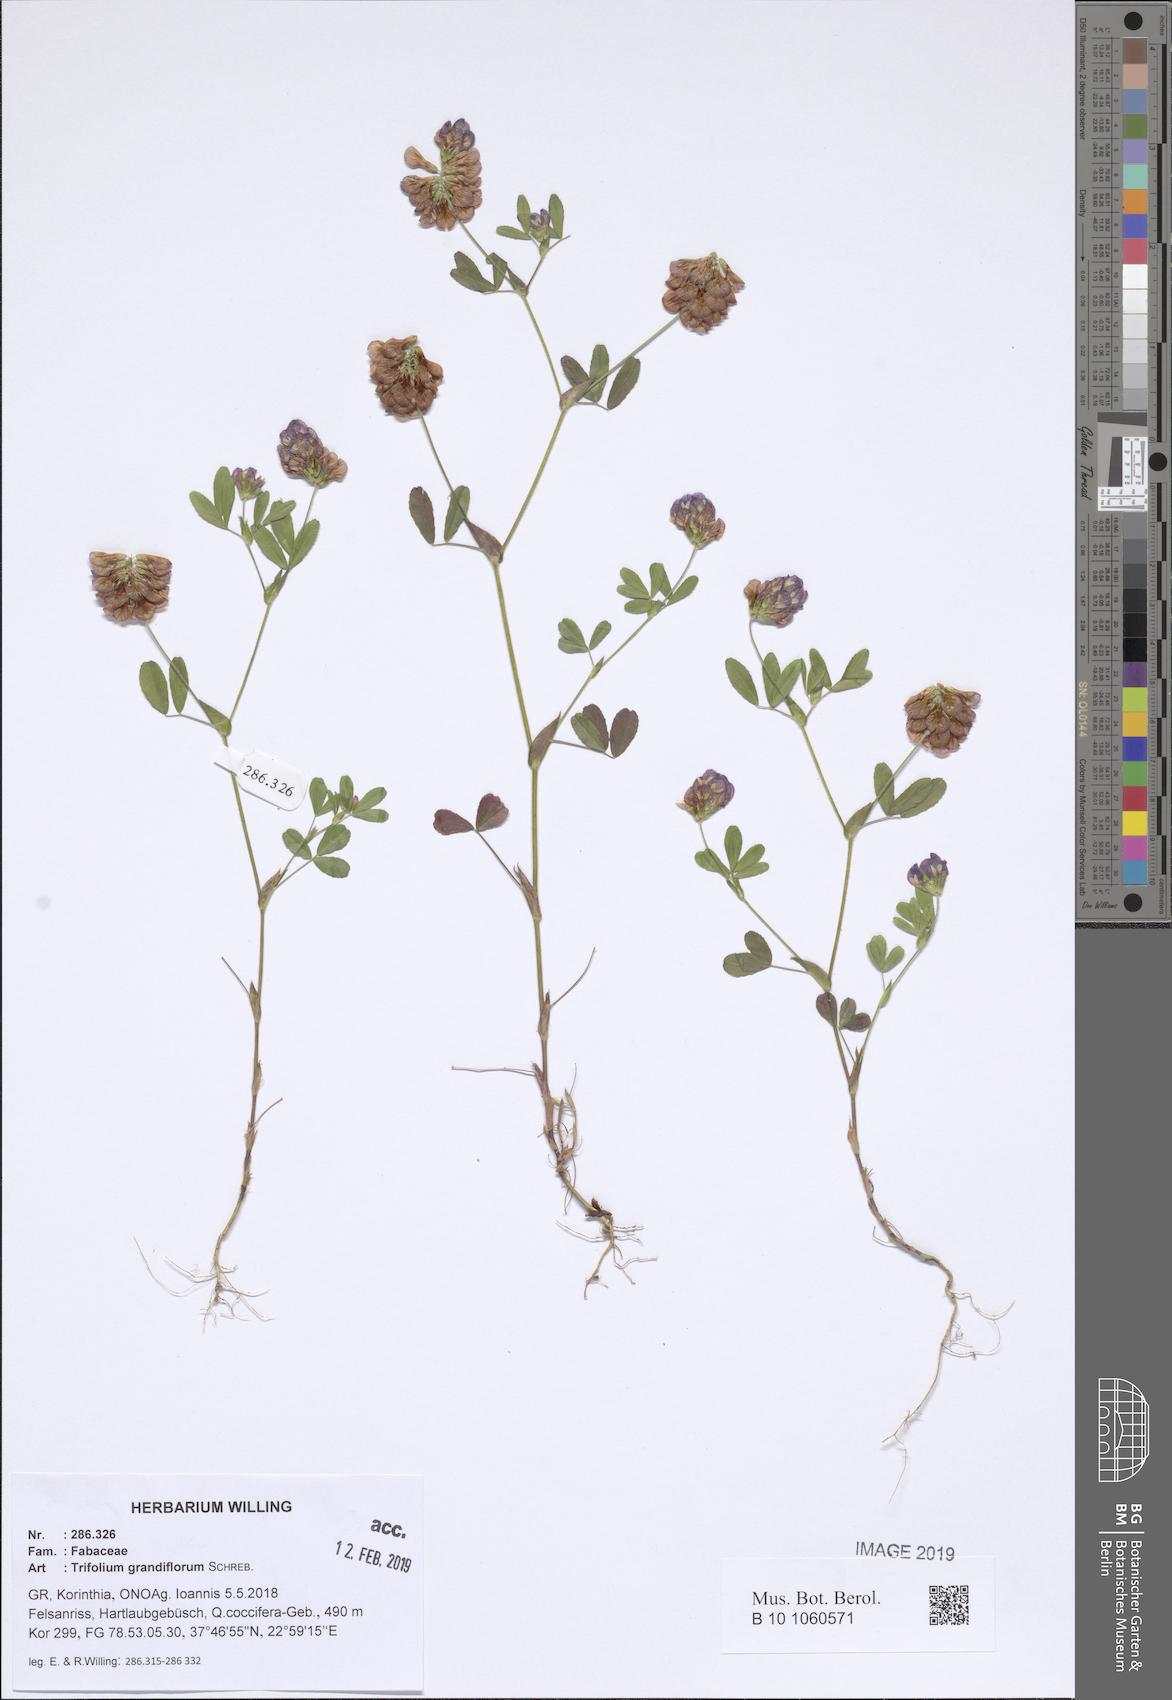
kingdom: Plantae
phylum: Tracheophyta
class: Magnoliopsida
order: Fabales
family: Fabaceae
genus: Trifolium
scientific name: Trifolium grandiflorum
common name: Large-flower hop clover
